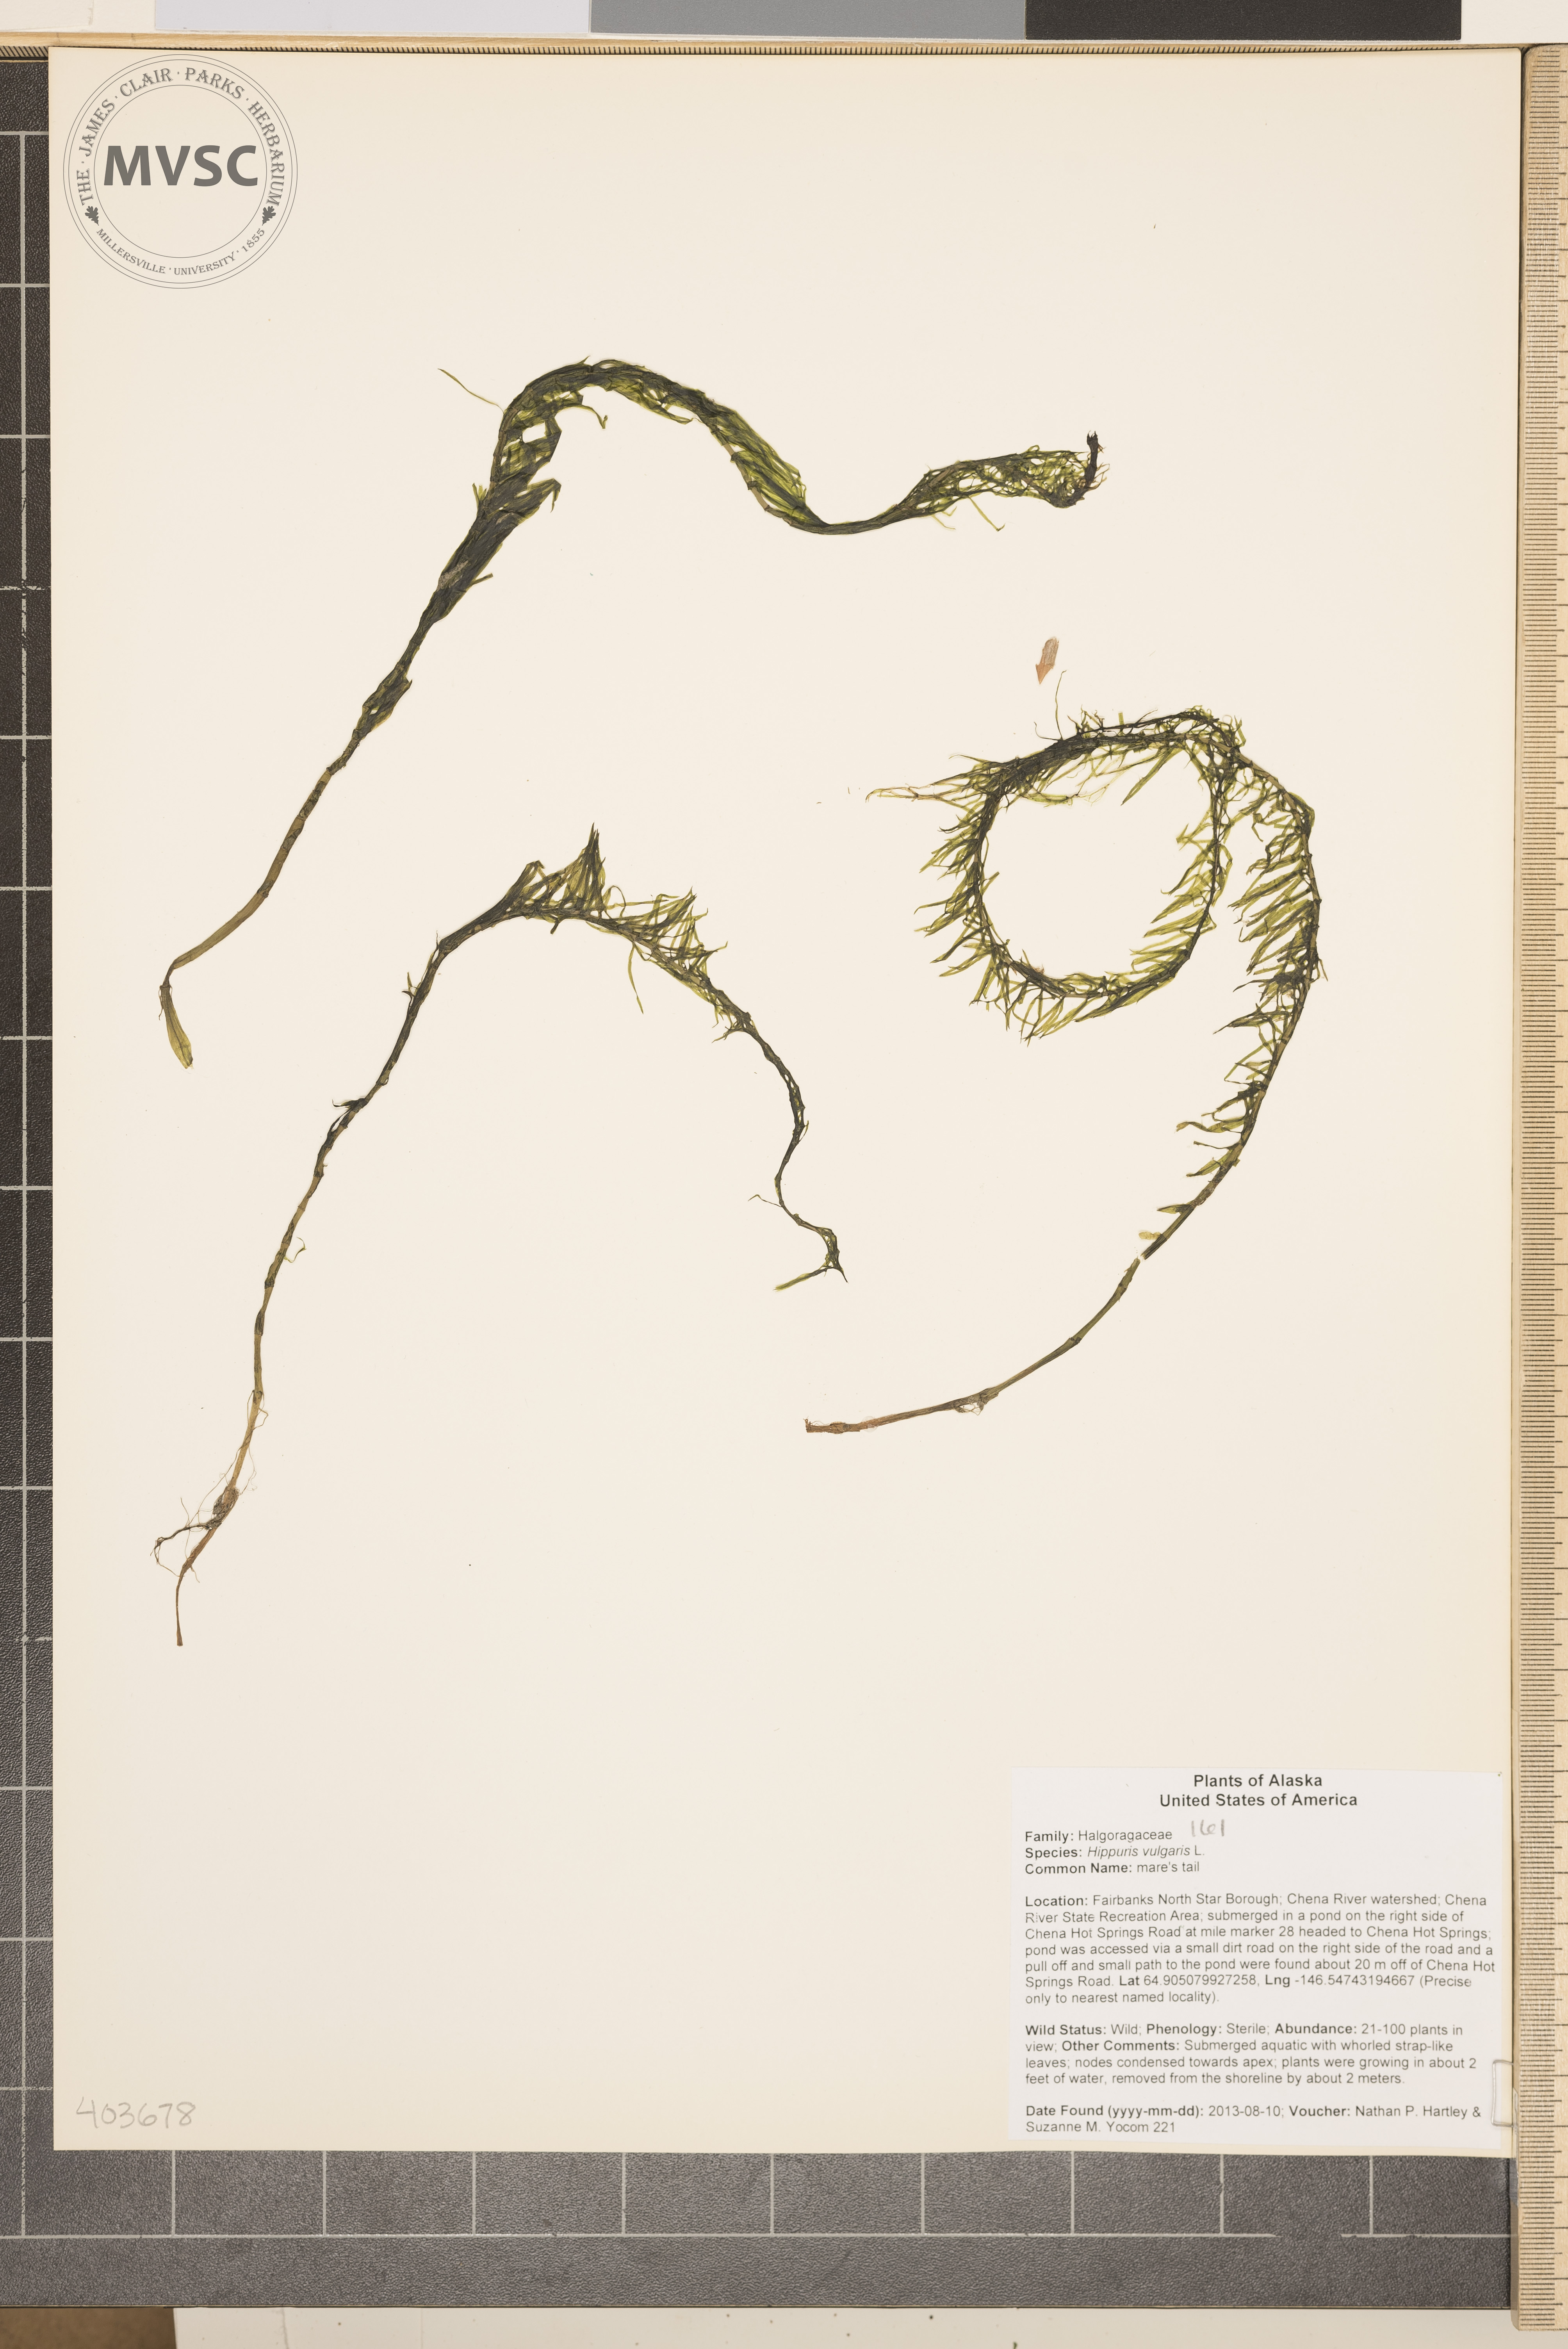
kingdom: Plantae
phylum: Tracheophyta
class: Magnoliopsida
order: Lamiales
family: Plantaginaceae
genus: Hippuris
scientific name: Hippuris vulgaris
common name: Mare's tail
